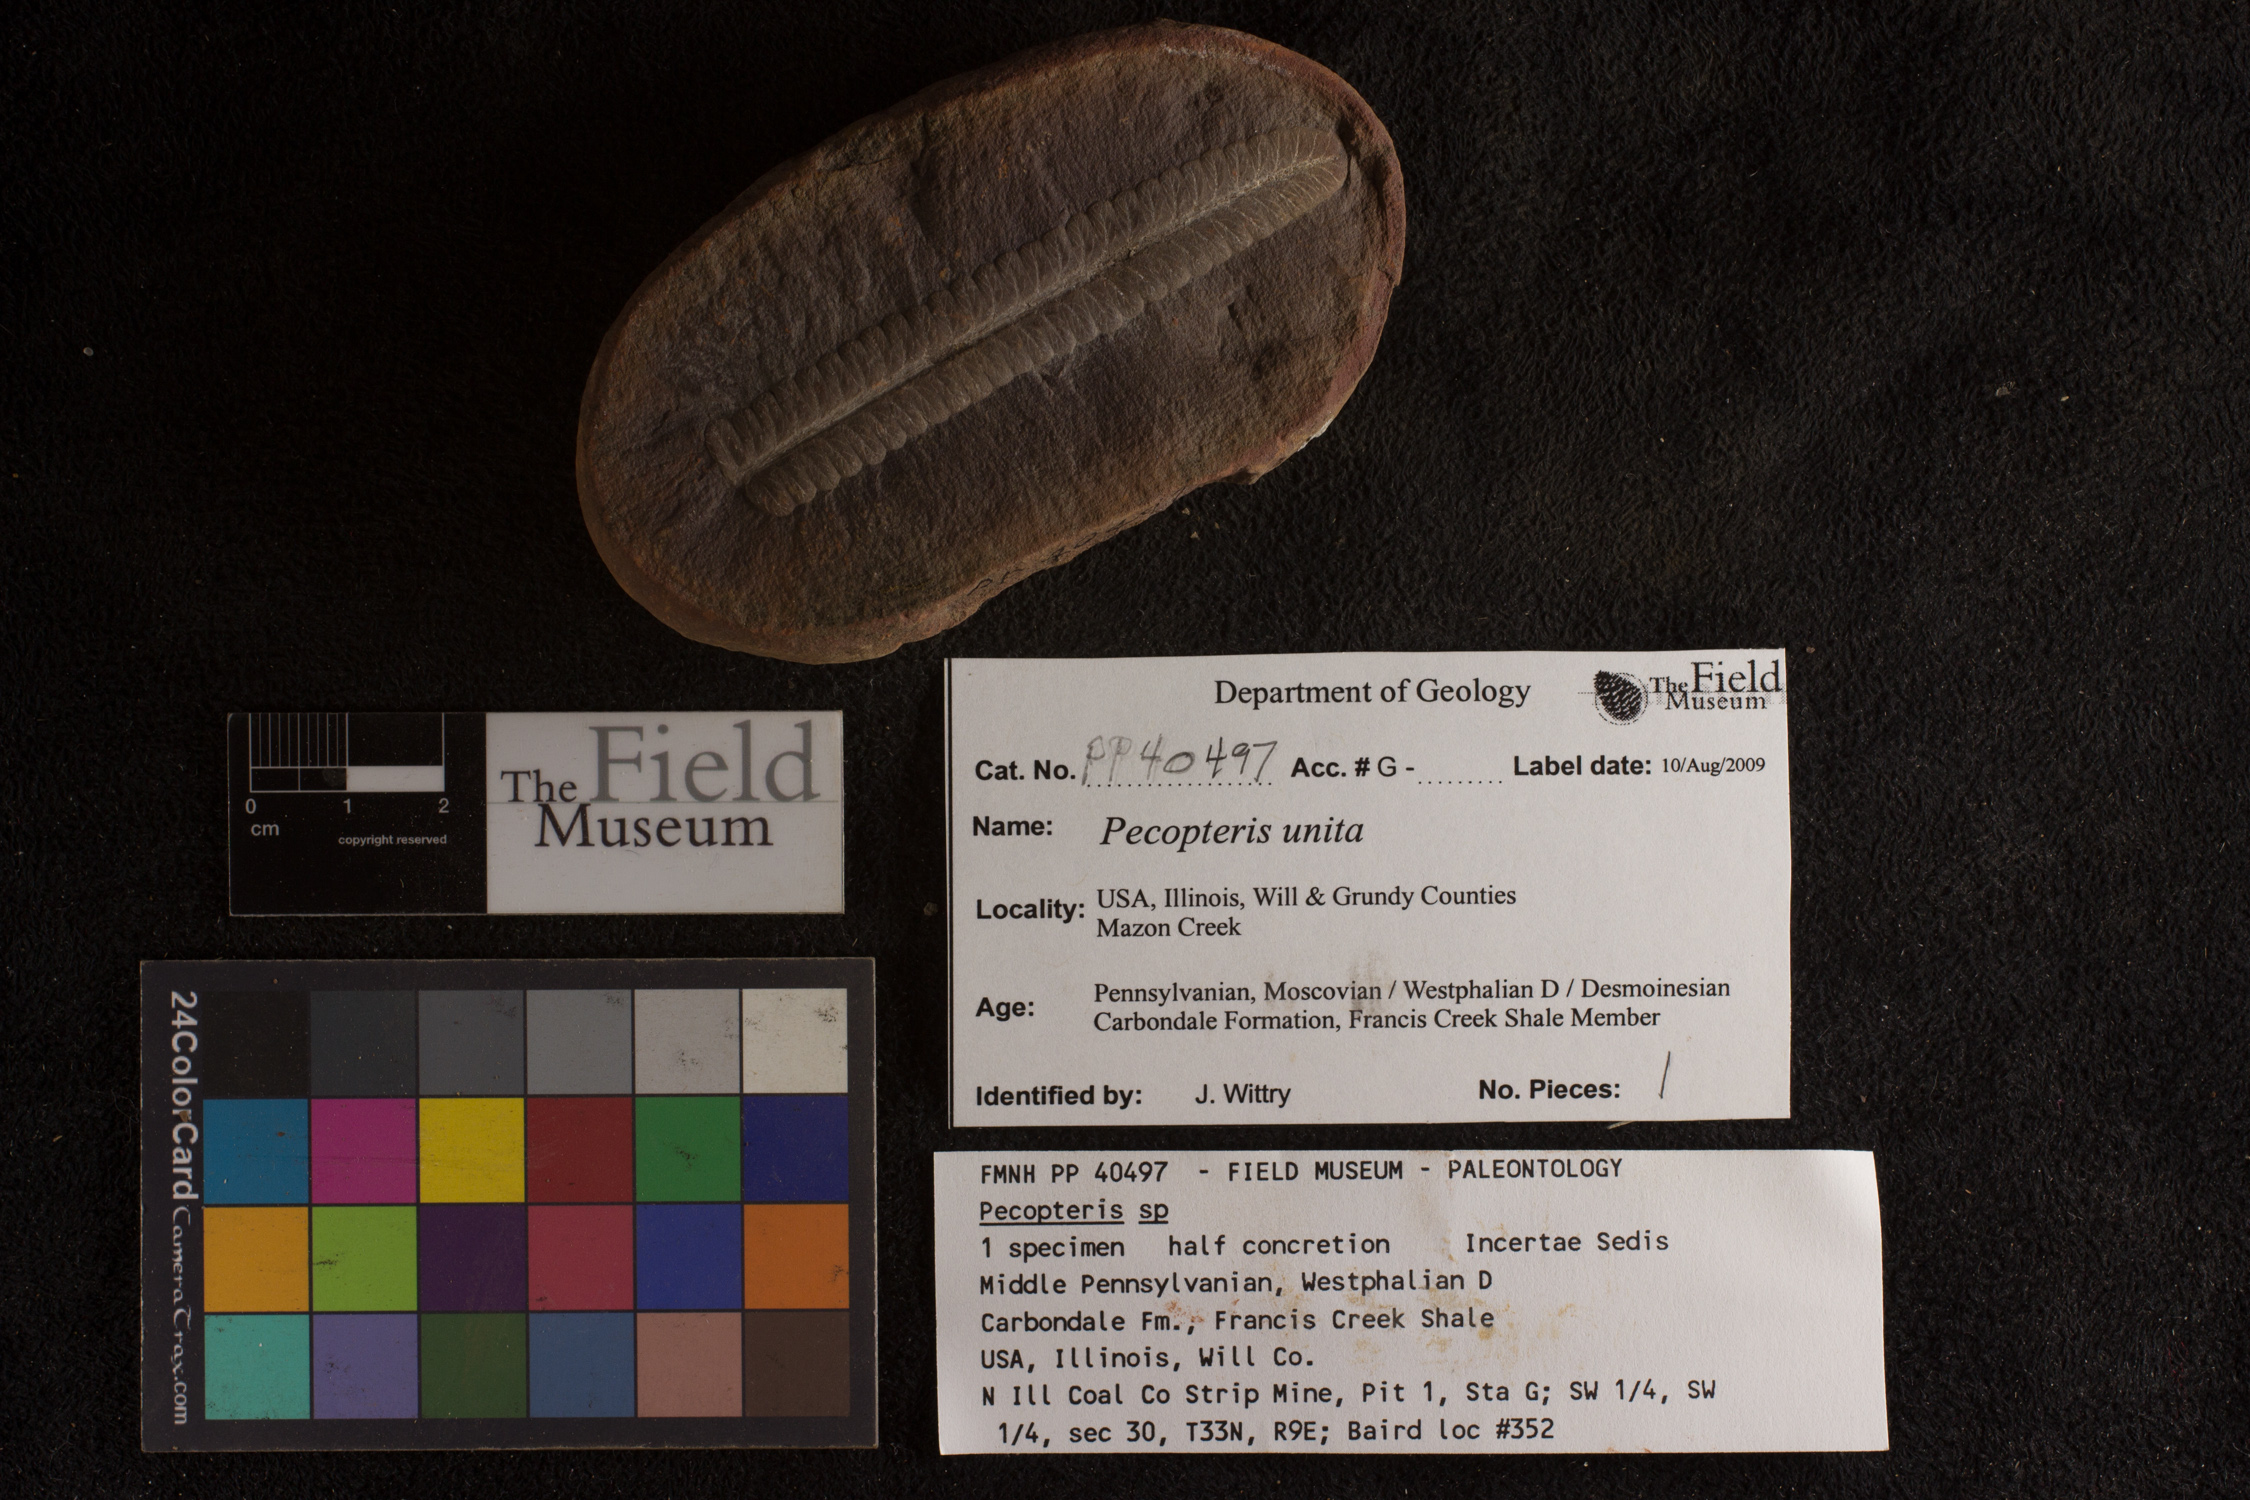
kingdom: Plantae
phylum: Tracheophyta
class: Polypodiopsida
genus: Diplazites
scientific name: Diplazites
